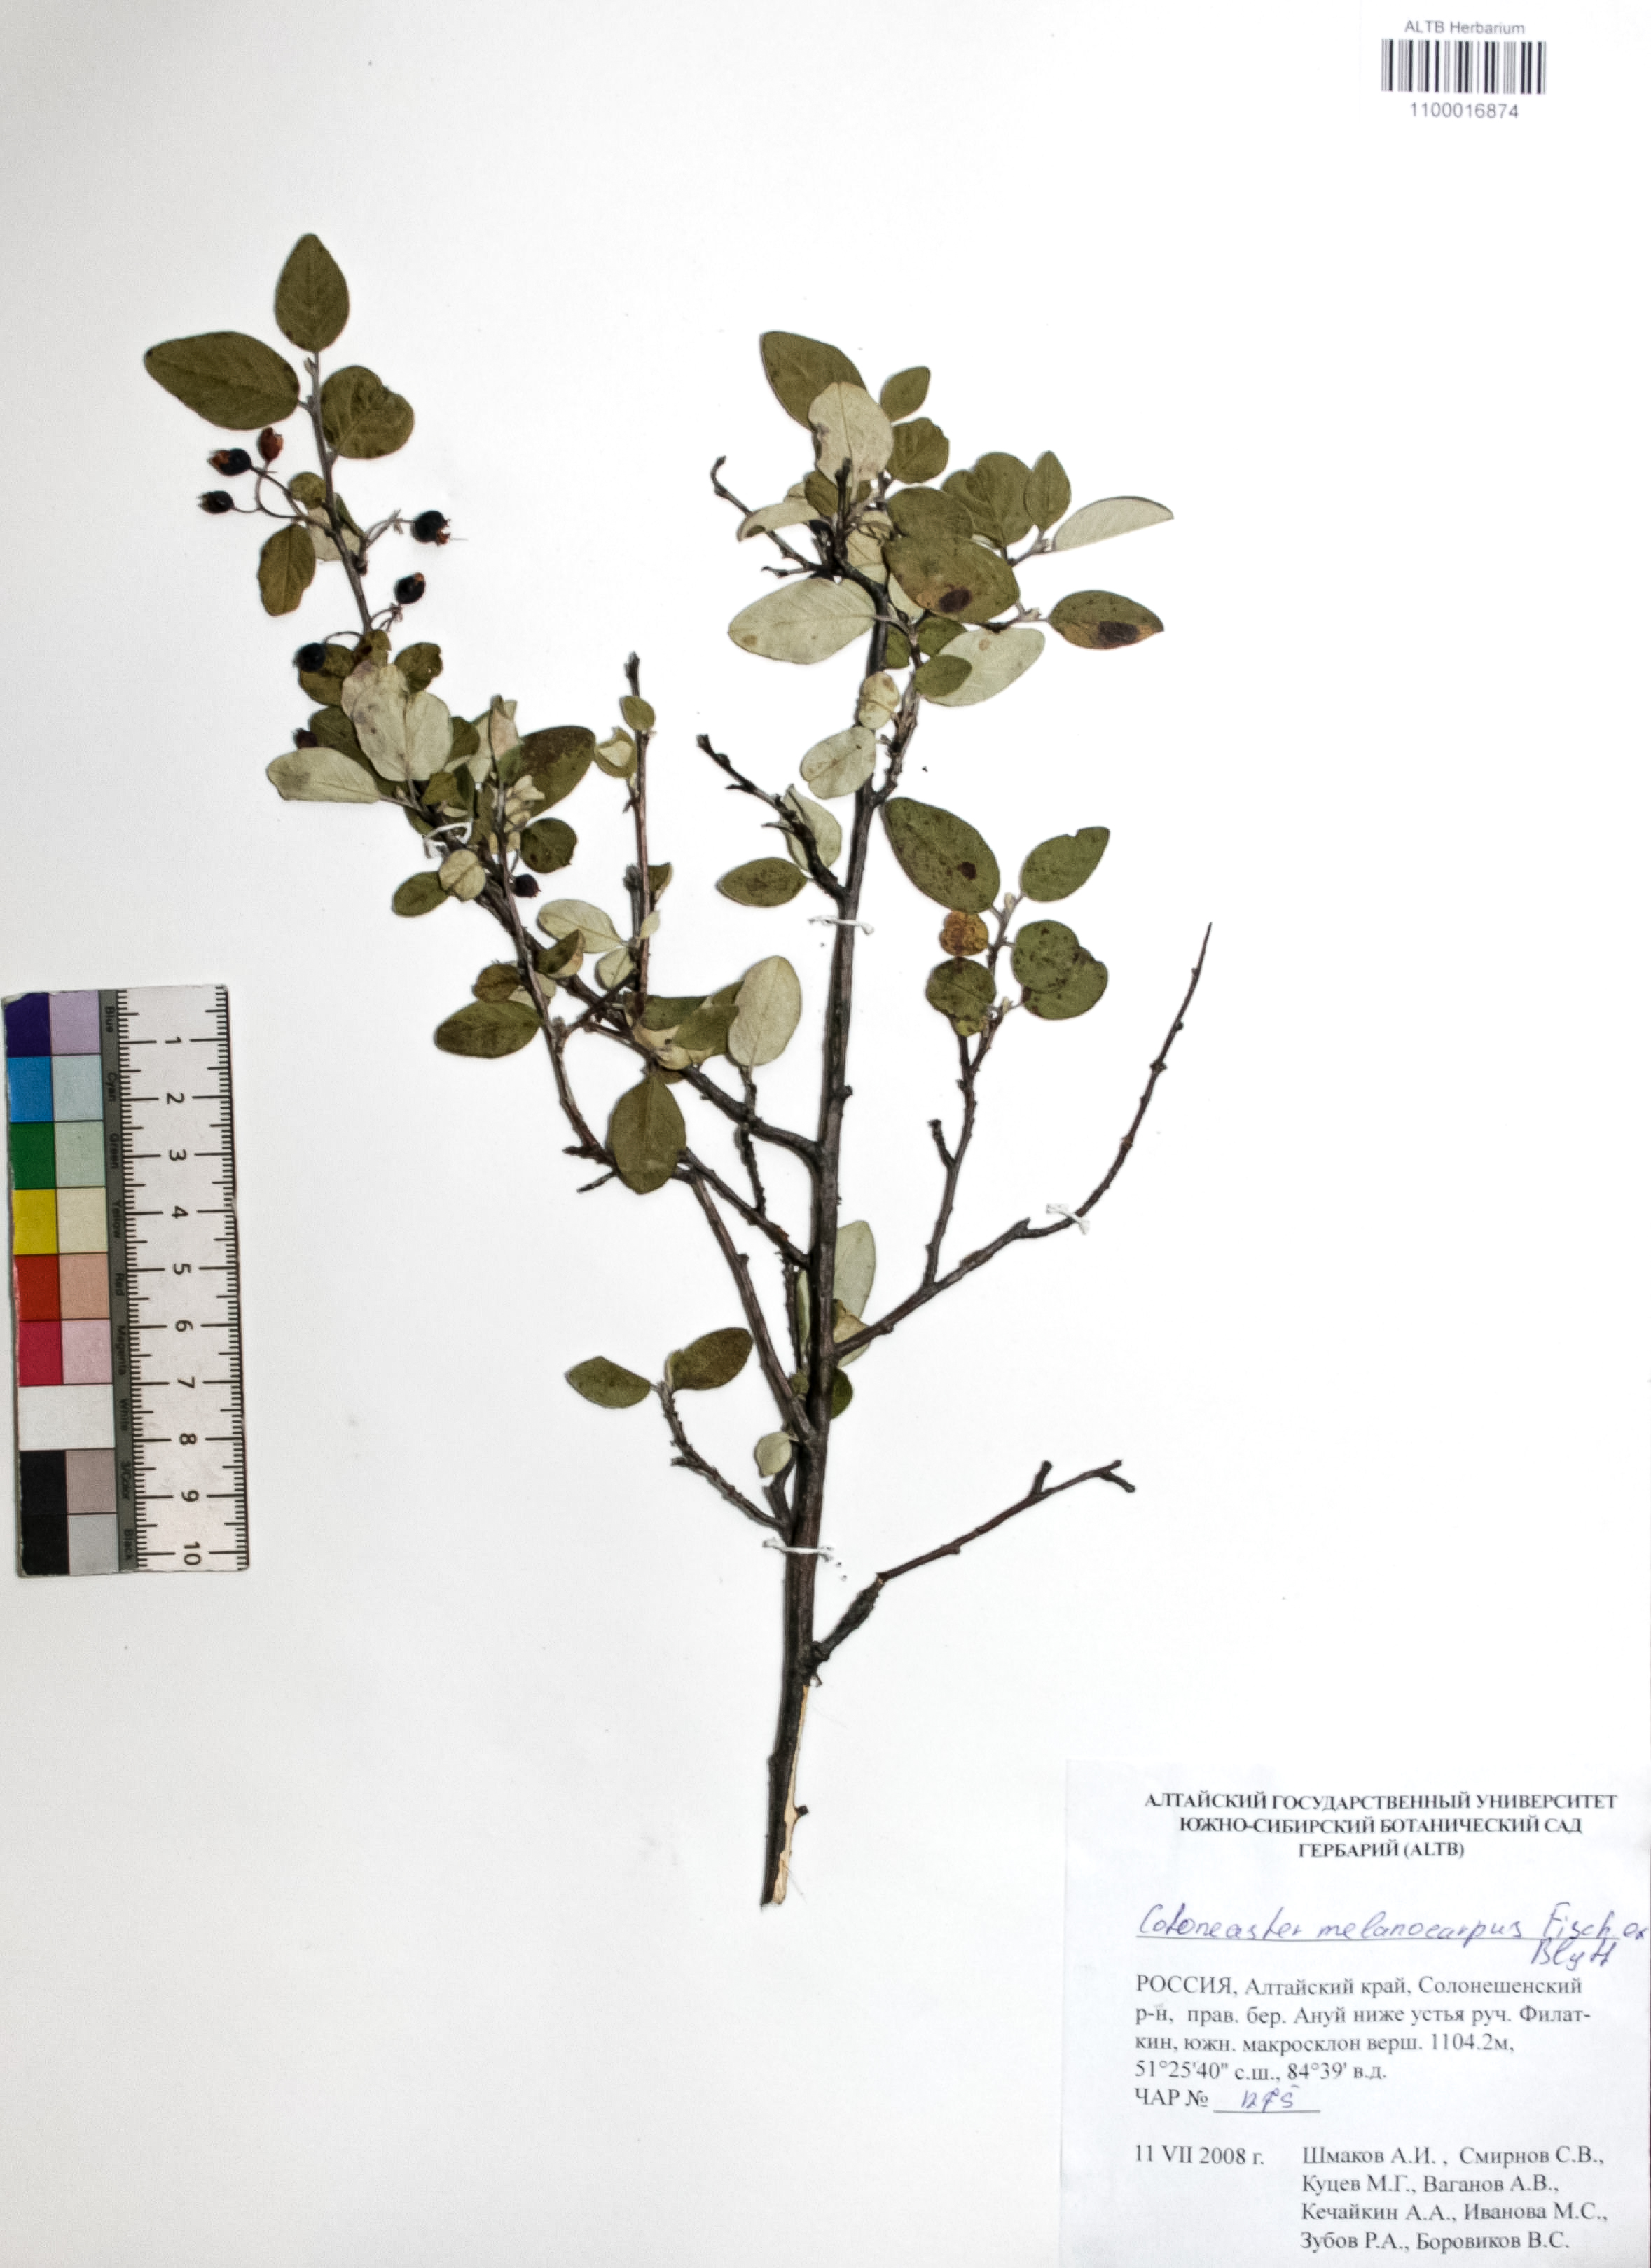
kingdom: Plantae
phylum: Tracheophyta
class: Magnoliopsida
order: Rosales
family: Rosaceae
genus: Cotoneaster
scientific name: Cotoneaster niger
